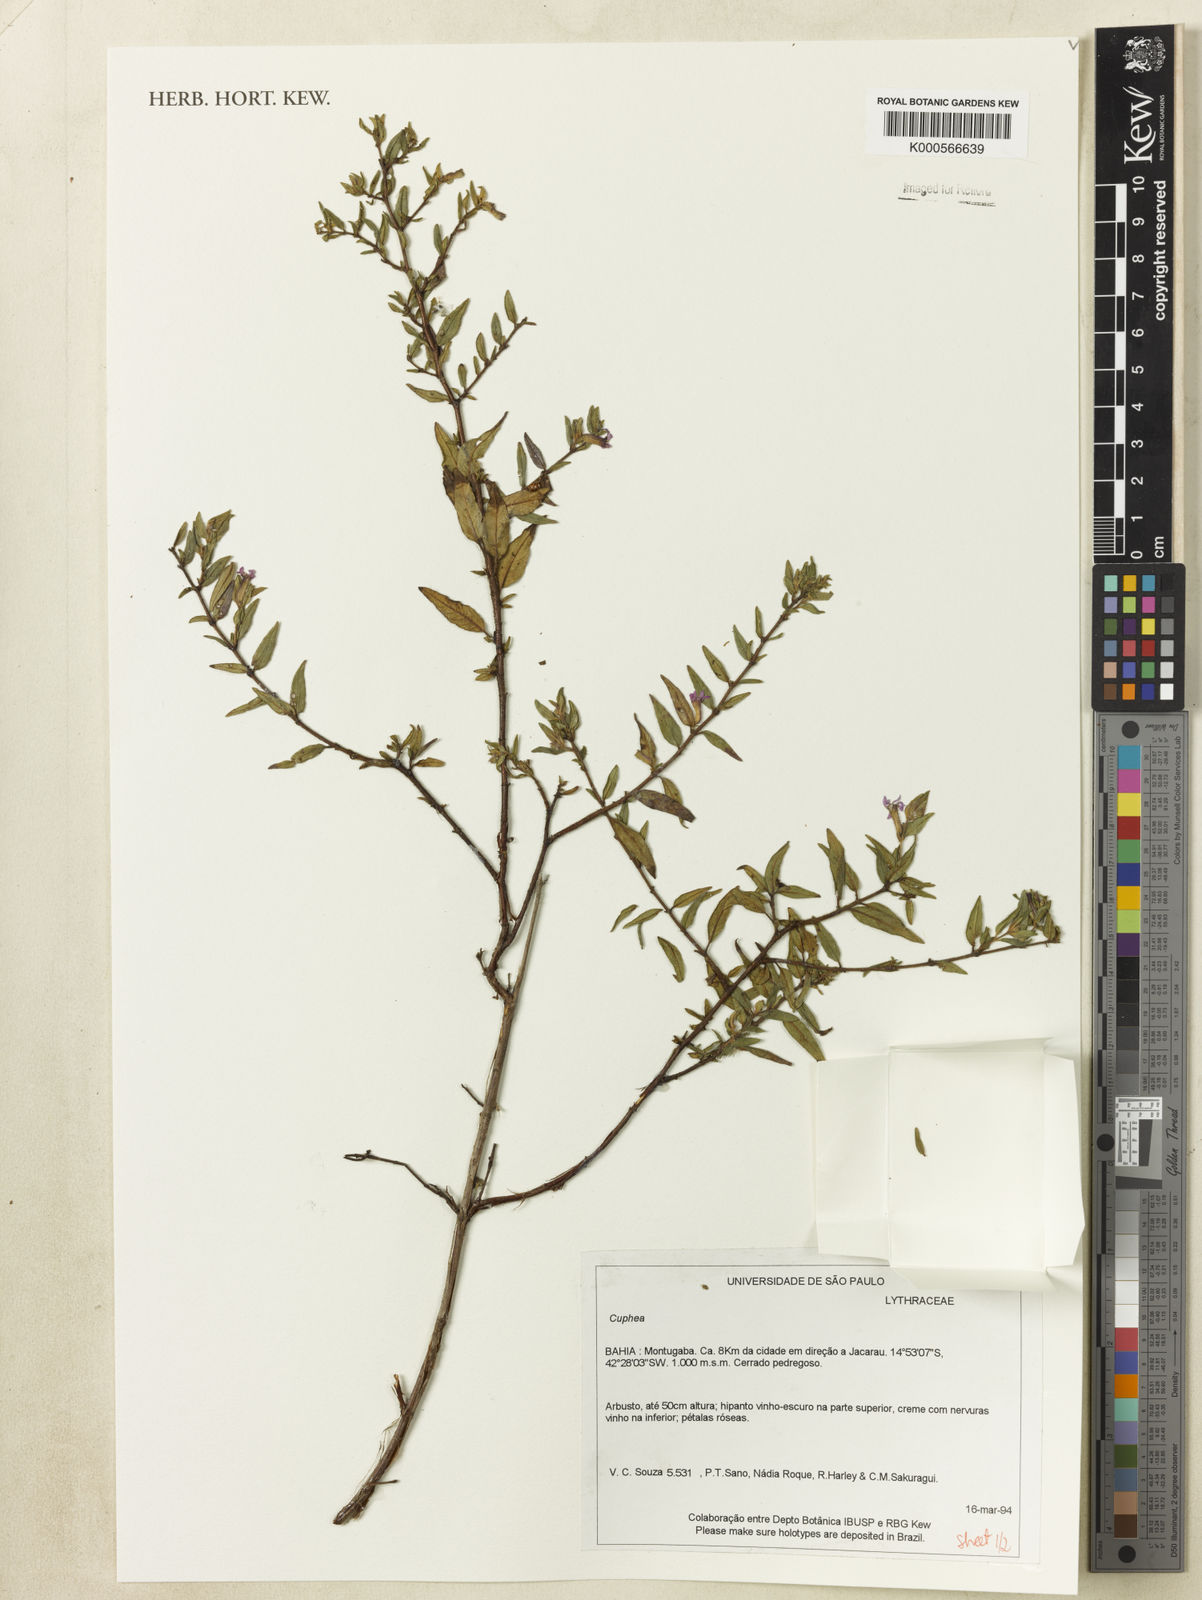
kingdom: Plantae
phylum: Tracheophyta
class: Magnoliopsida
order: Myrtales
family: Lythraceae
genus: Cuphea
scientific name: Cuphea
